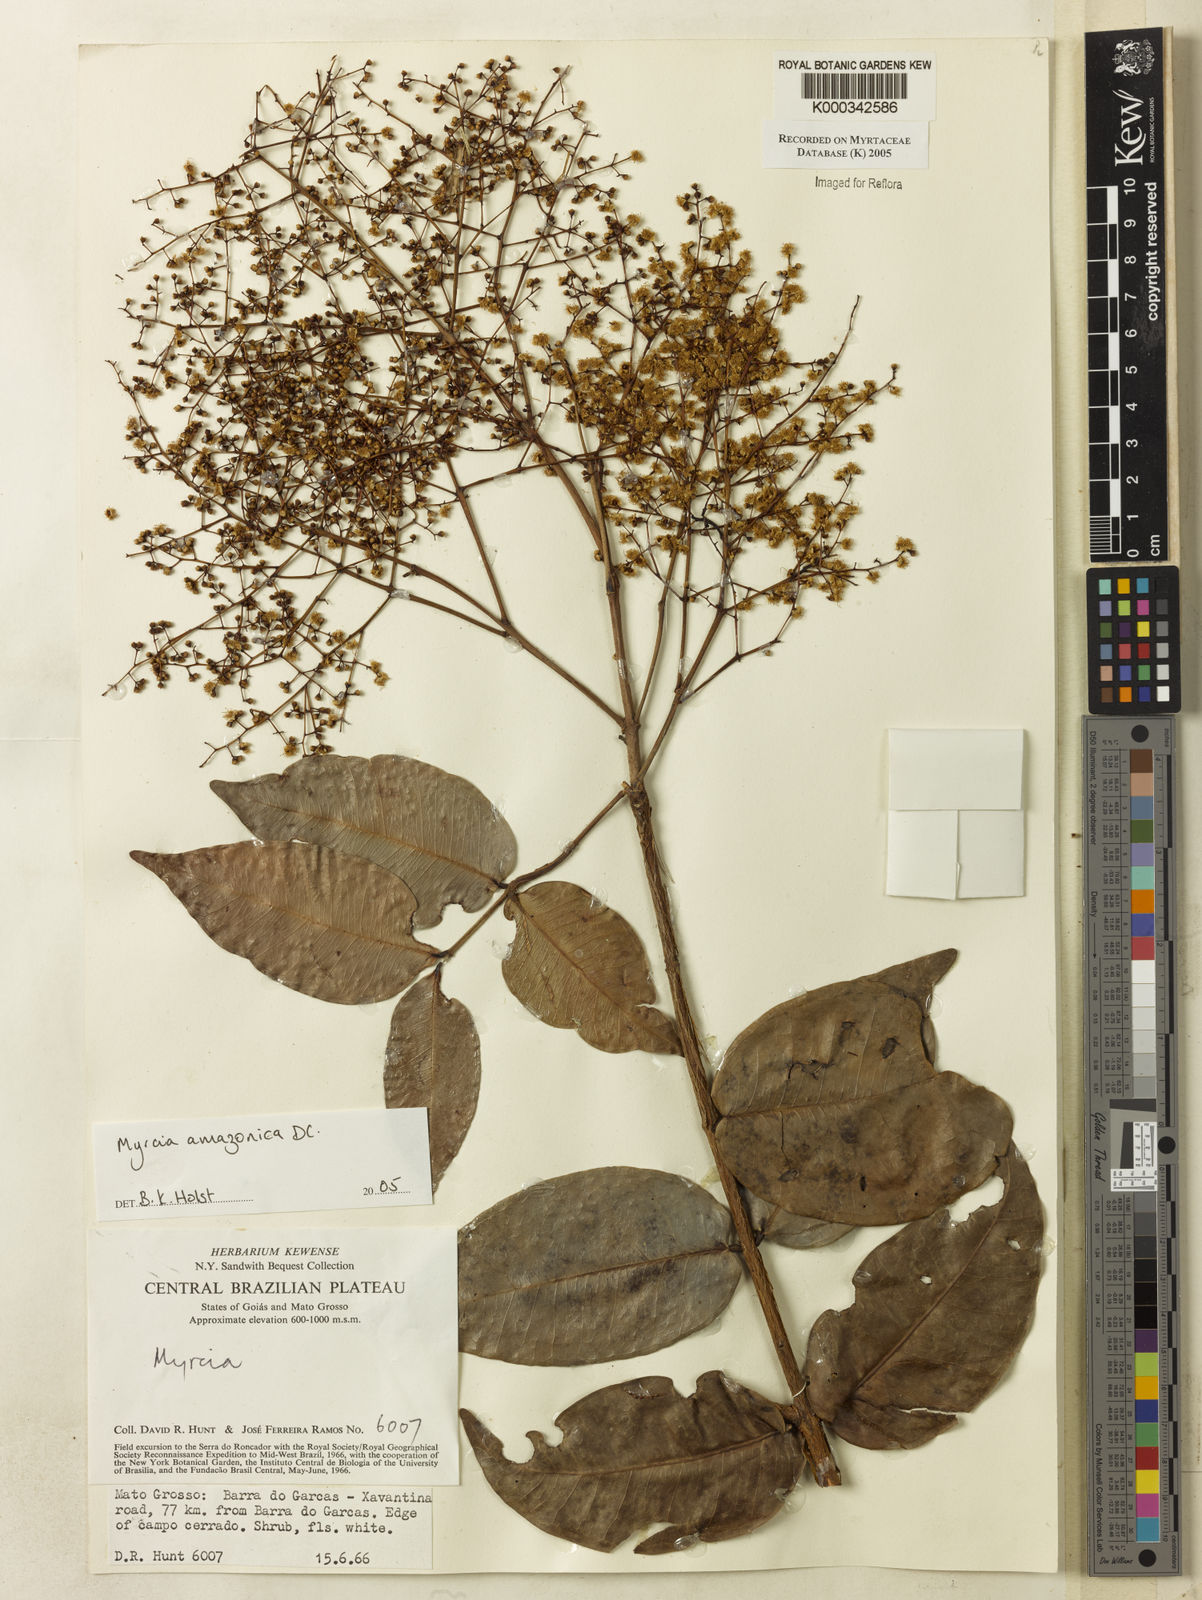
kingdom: Plantae
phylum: Tracheophyta
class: Magnoliopsida
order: Myrtales
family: Myrtaceae
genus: Myrcia
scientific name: Myrcia amazonica
